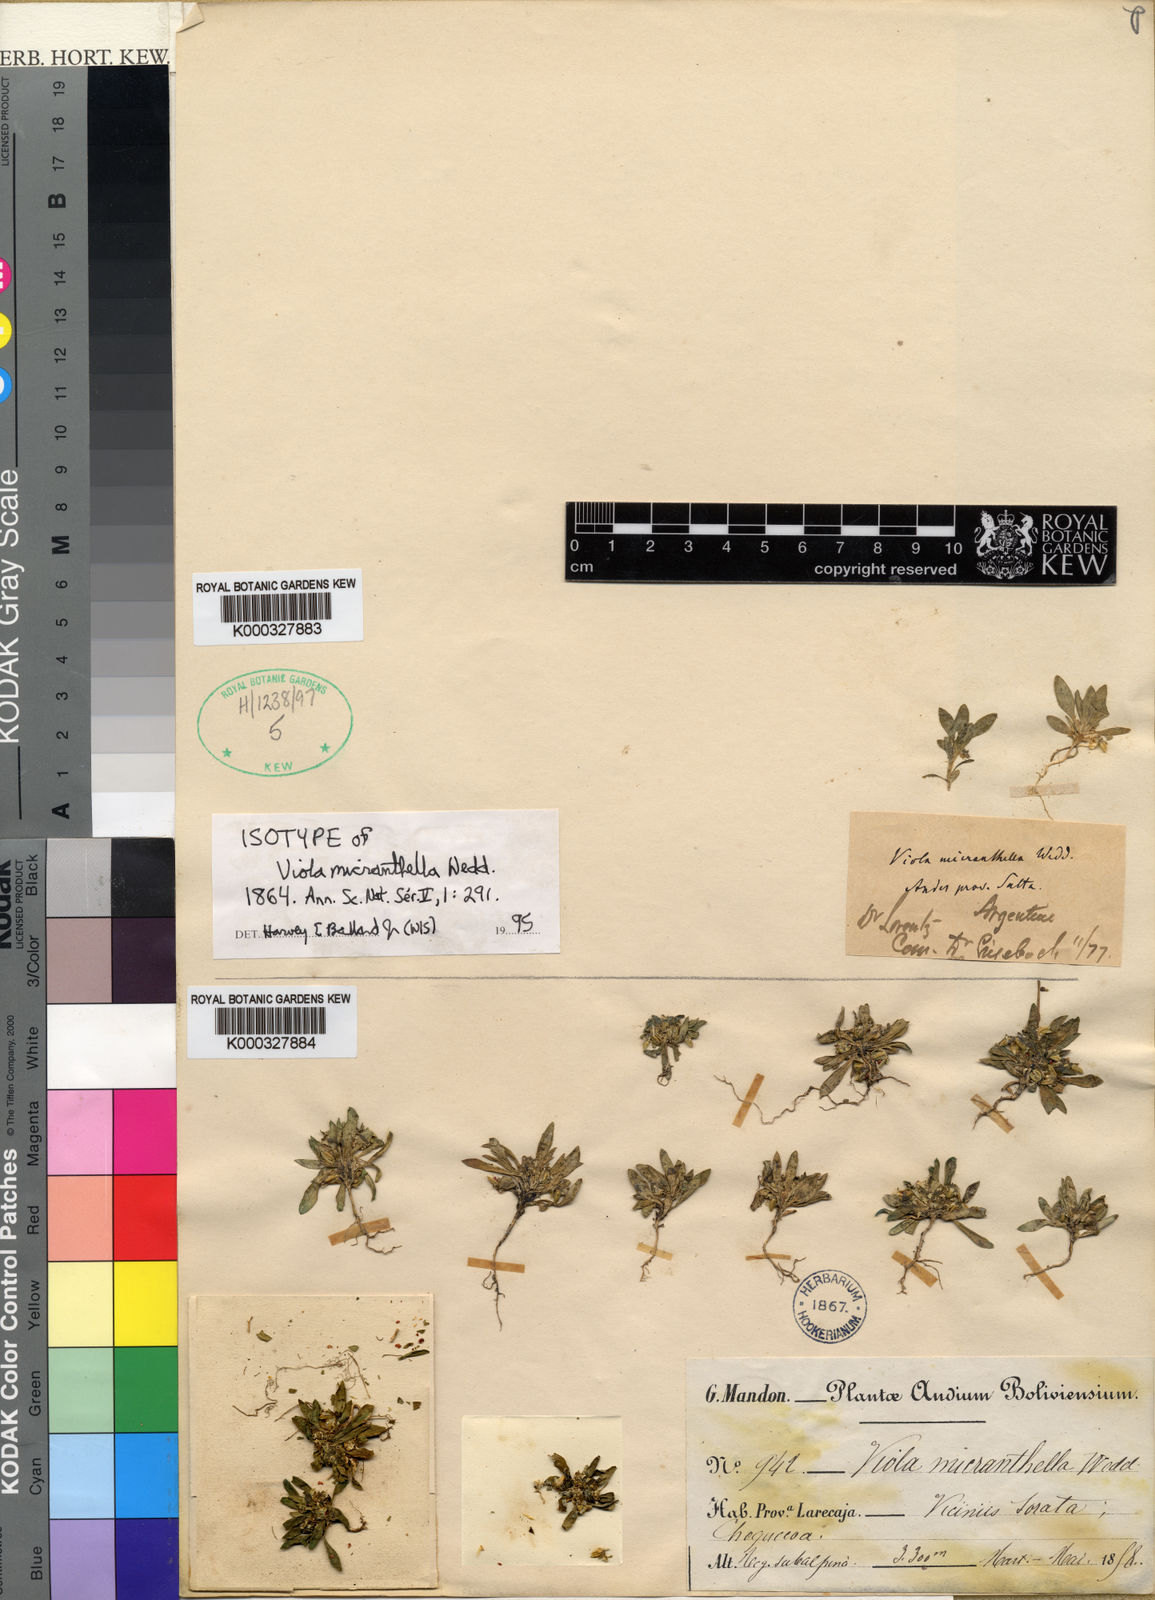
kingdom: Plantae
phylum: Tracheophyta
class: Magnoliopsida
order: Malpighiales
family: Violaceae
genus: Viola
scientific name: Viola micranthella
